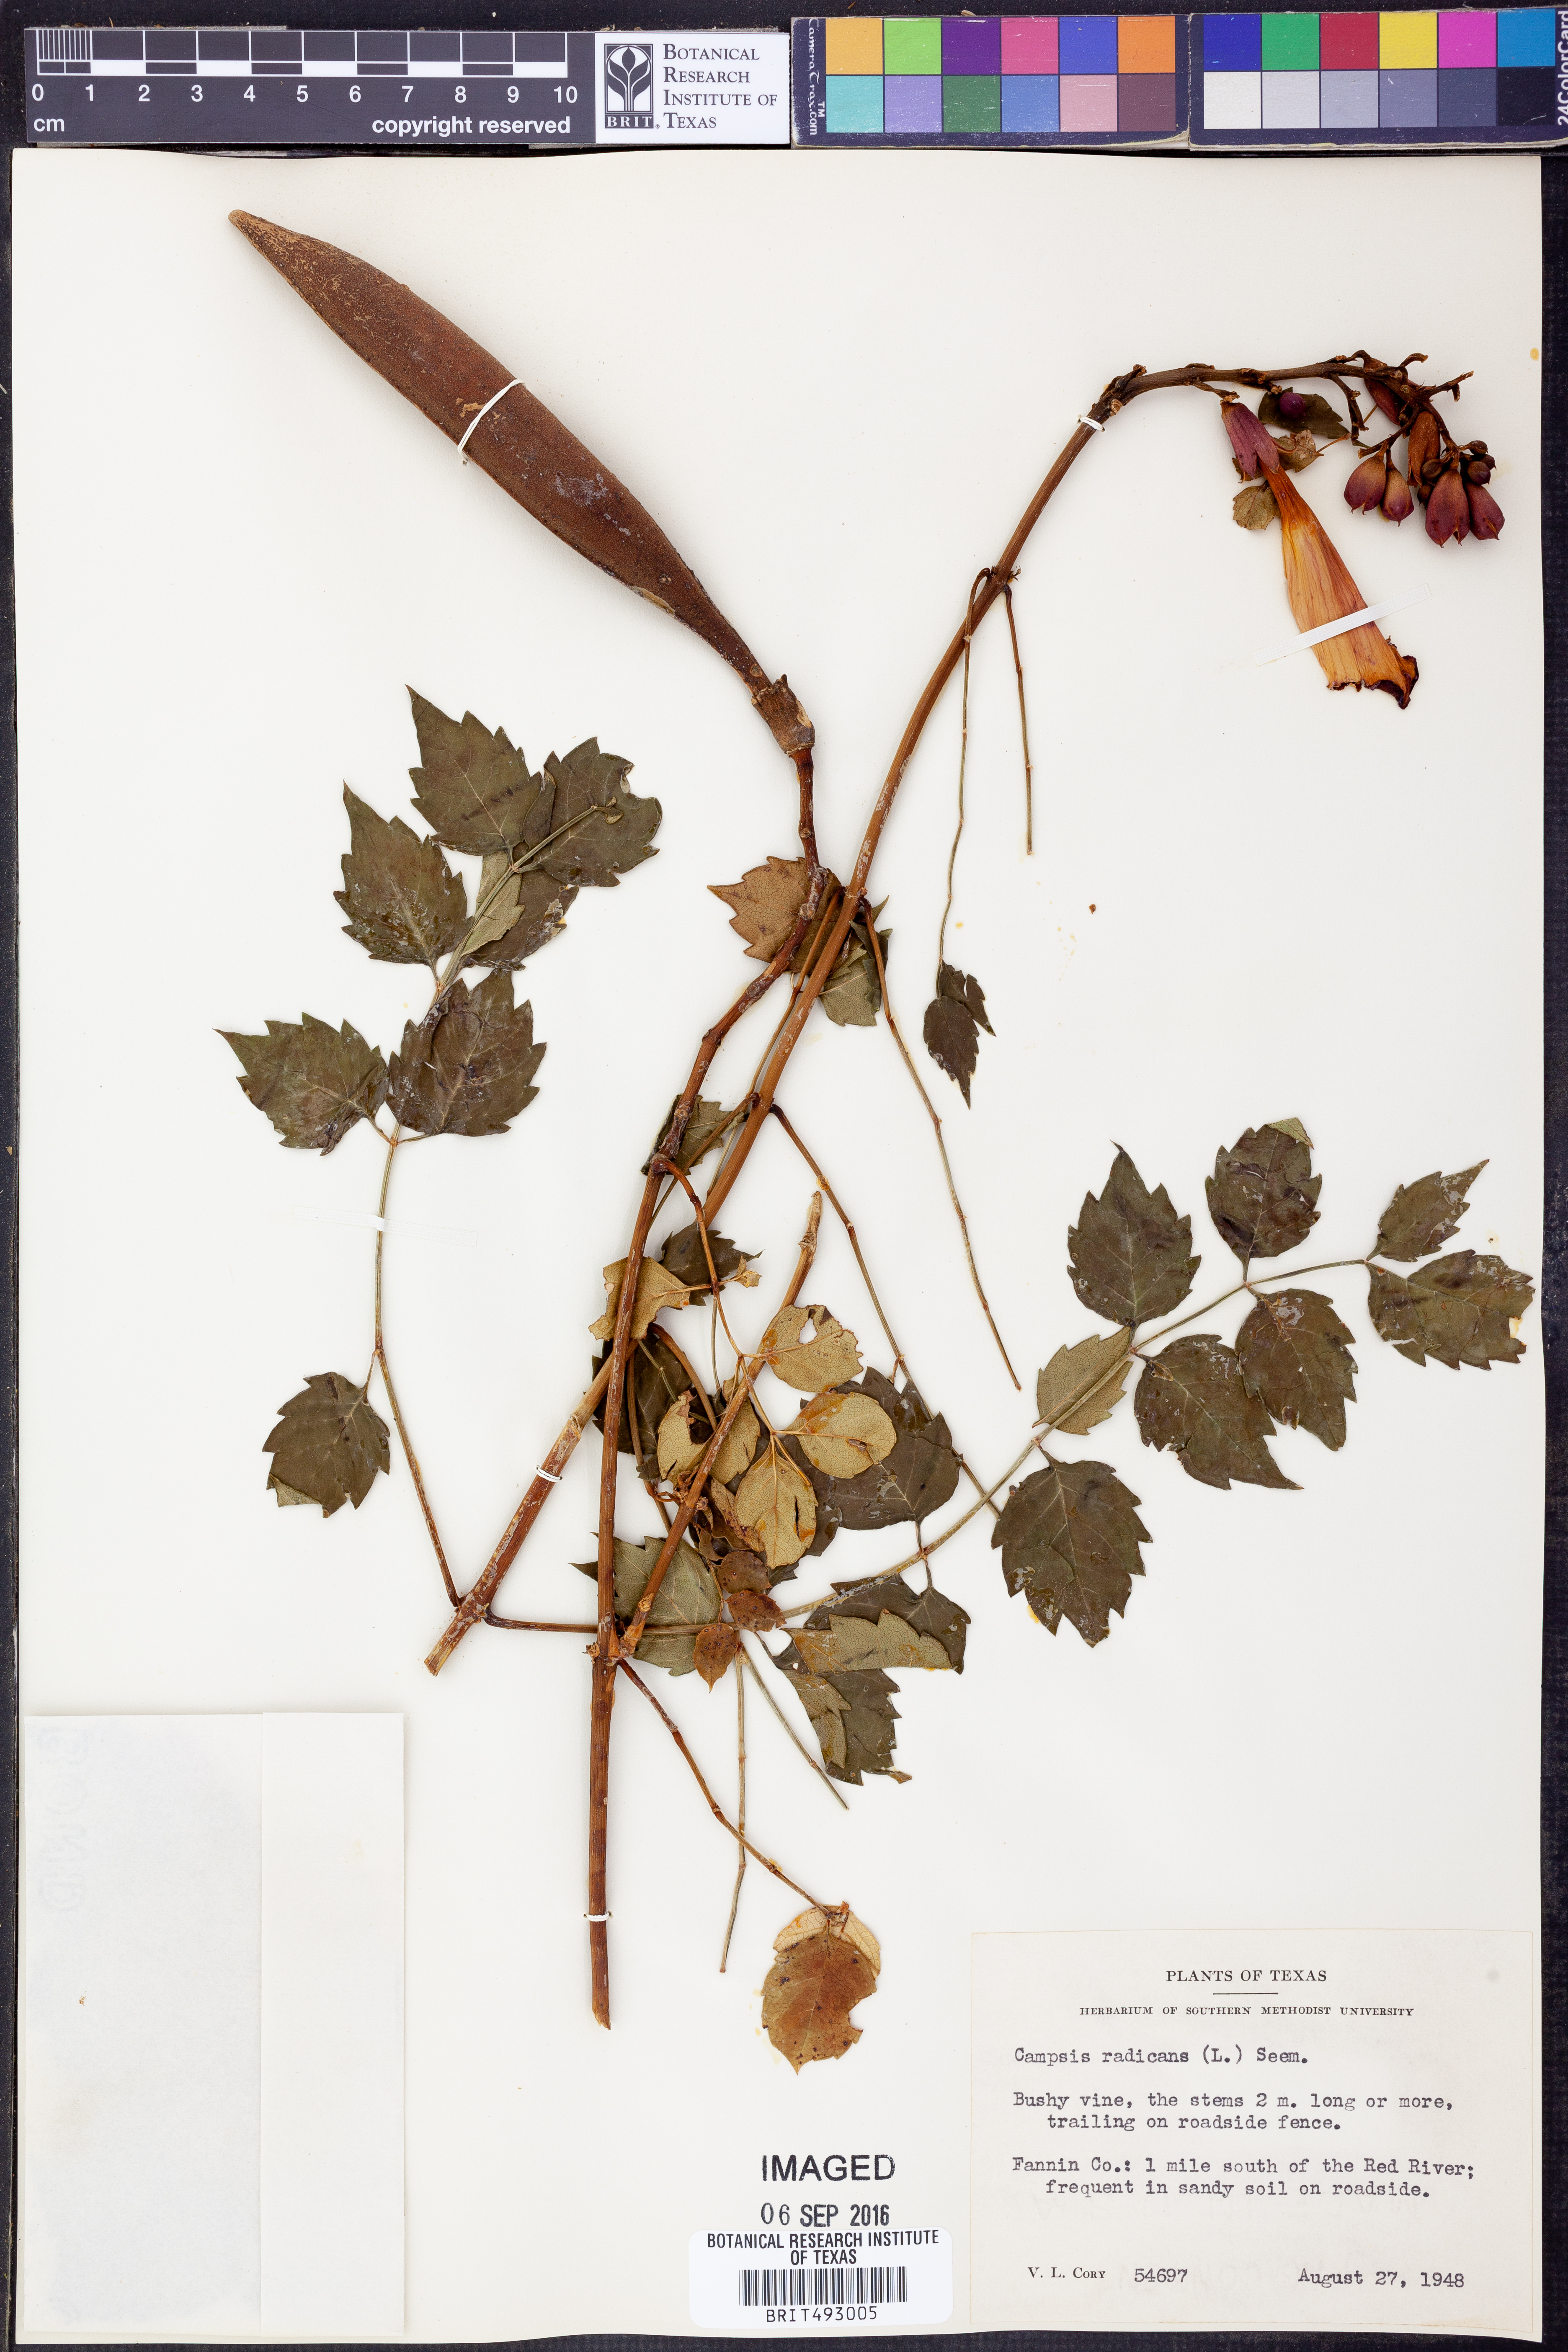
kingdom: Plantae
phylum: Tracheophyta
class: Magnoliopsida
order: Lamiales
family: Bignoniaceae
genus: Campsis
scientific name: Campsis radicans
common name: Trumpet-creeper
